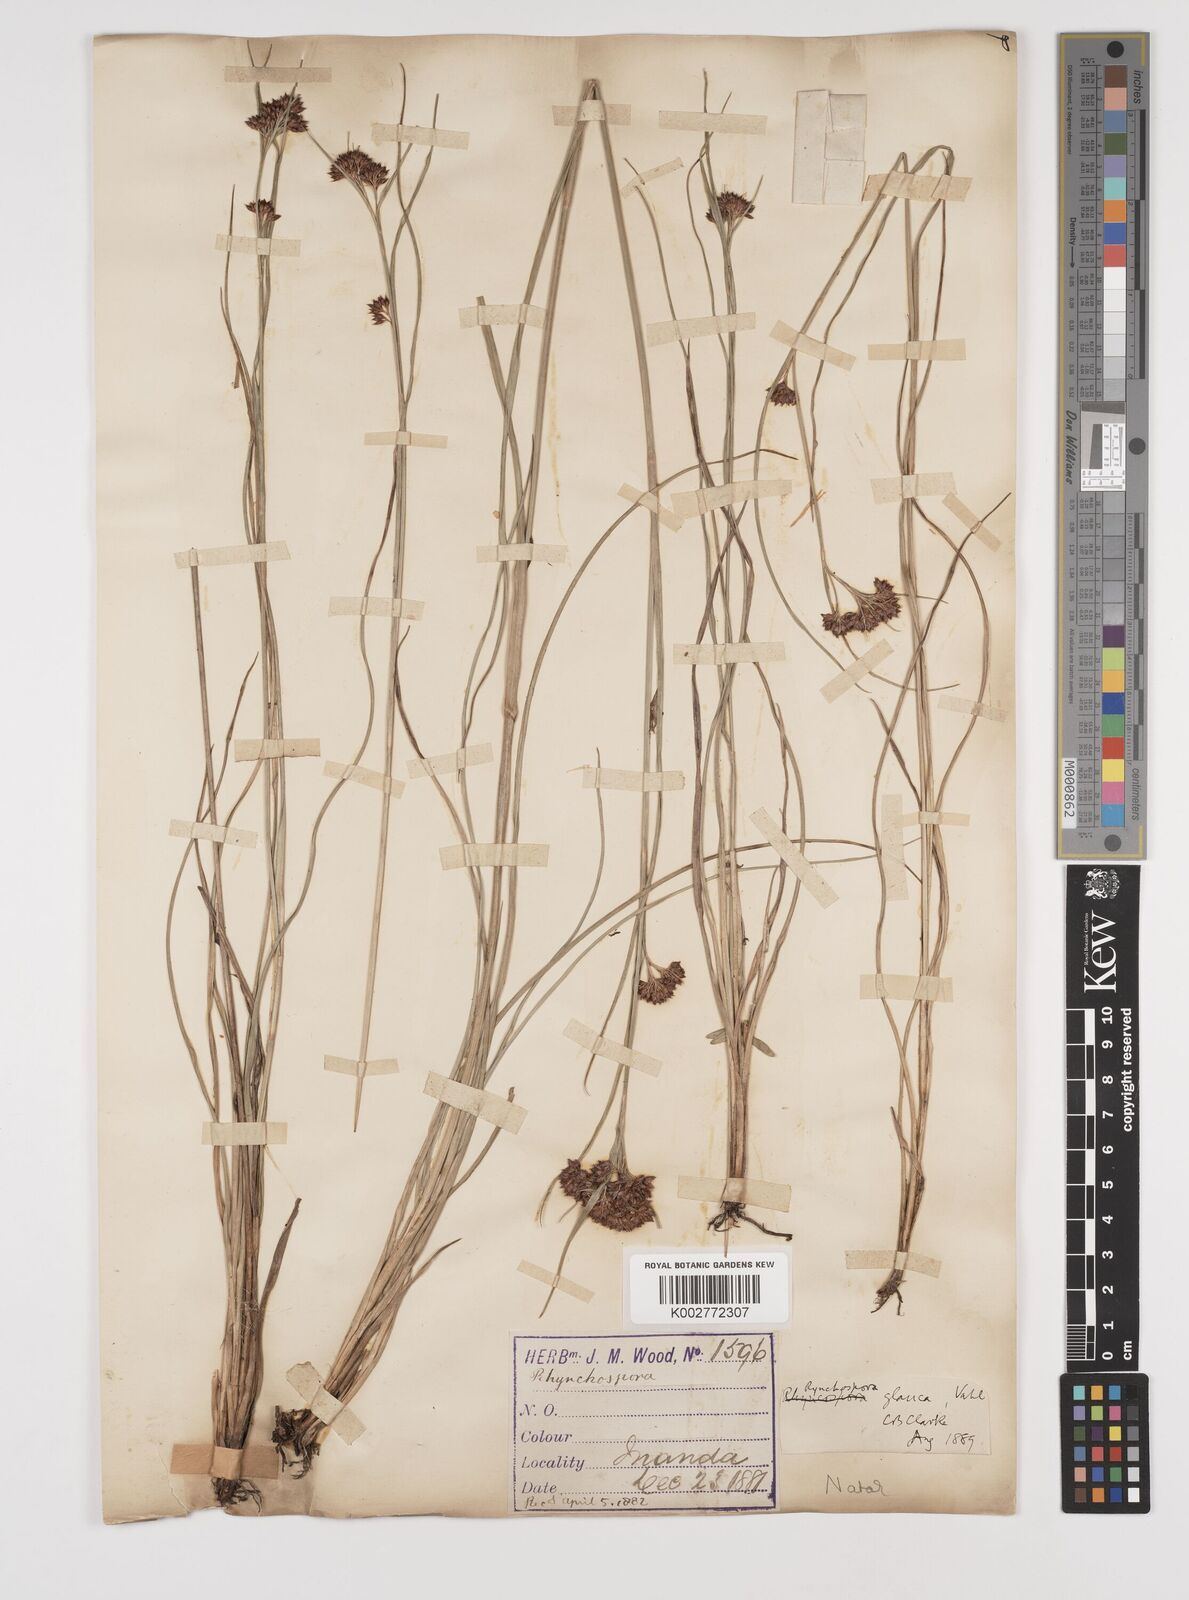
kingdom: Plantae
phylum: Tracheophyta
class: Liliopsida
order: Poales
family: Cyperaceae
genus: Rhynchospora
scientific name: Rhynchospora rugosa
